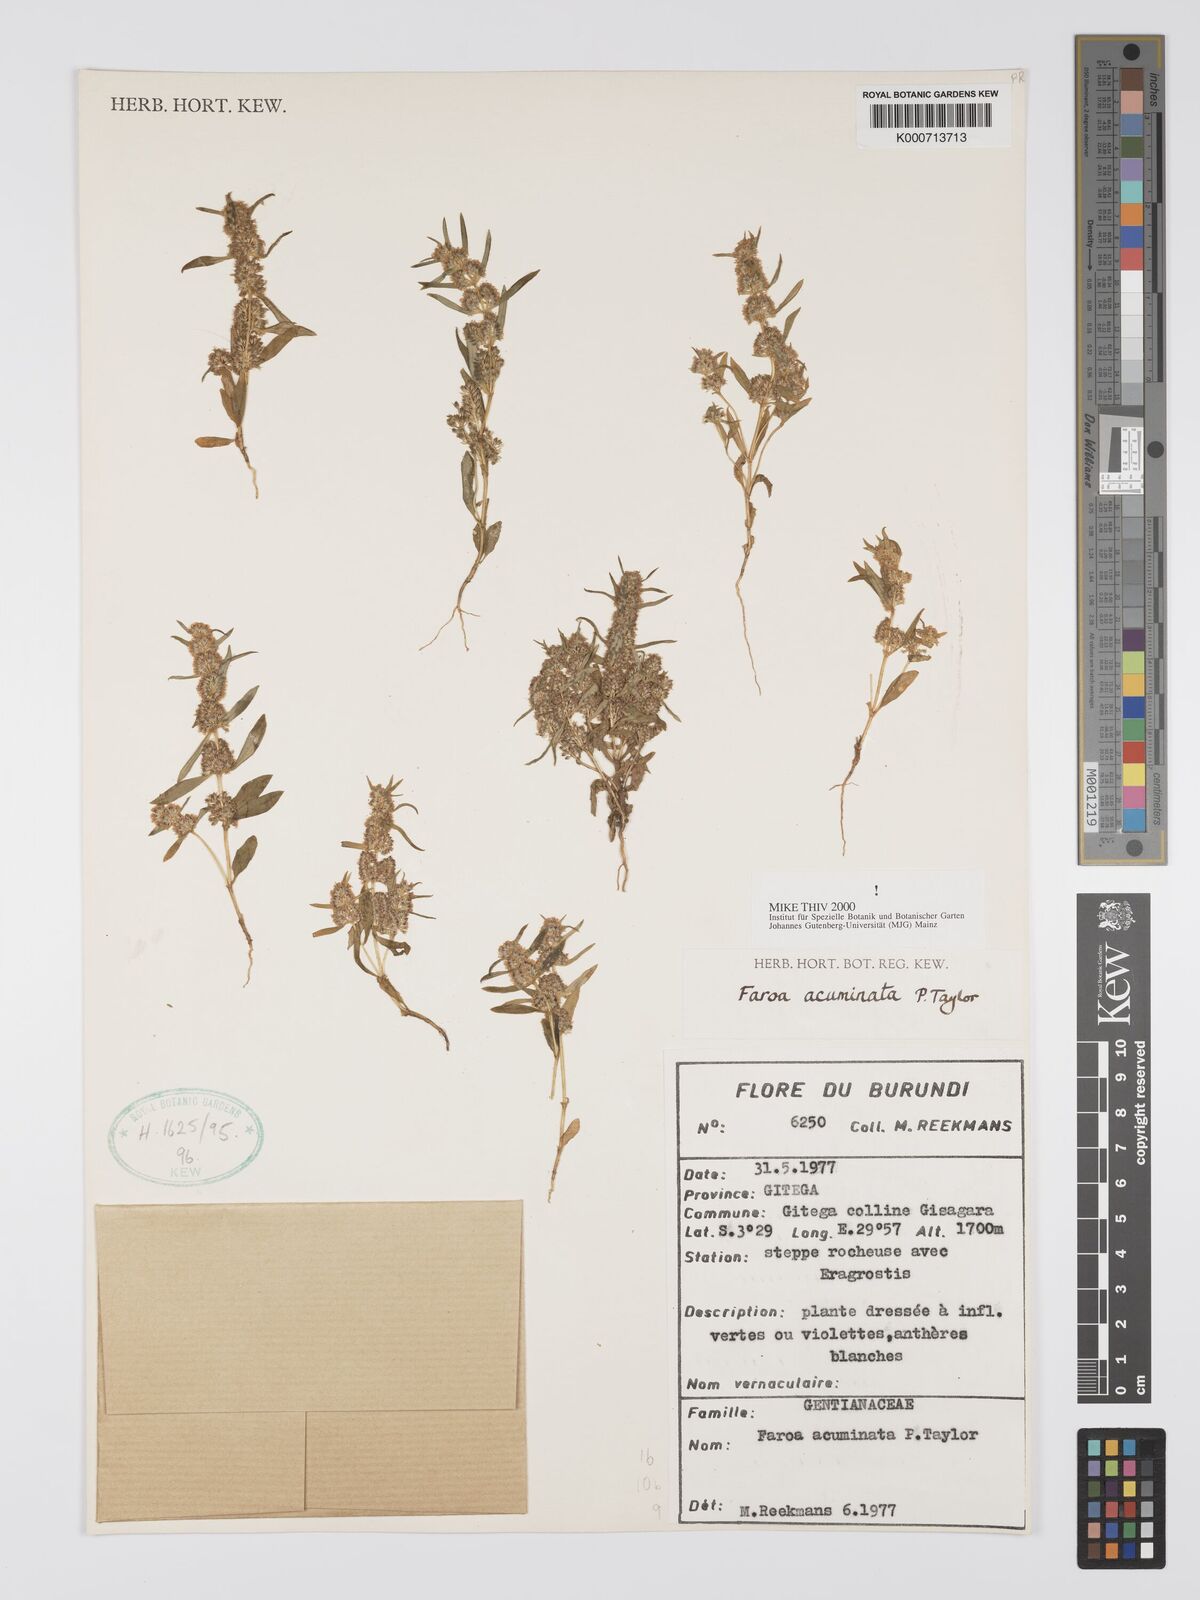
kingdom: Plantae
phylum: Tracheophyta
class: Magnoliopsida
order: Gentianales
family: Gentianaceae
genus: Faroa
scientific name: Faroa acuminata
